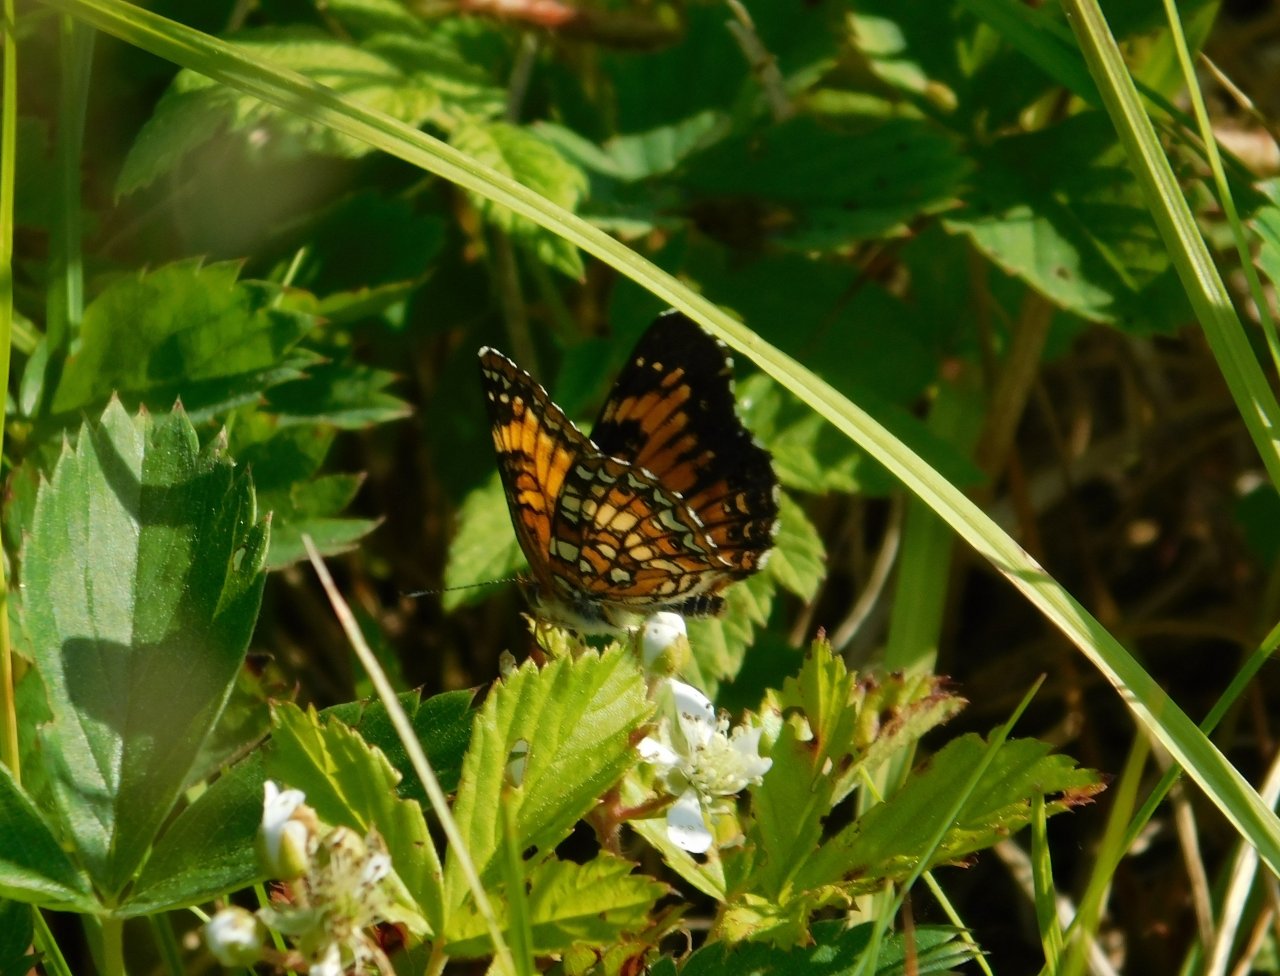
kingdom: Animalia
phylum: Arthropoda
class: Insecta
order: Lepidoptera
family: Nymphalidae
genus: Chlosyne
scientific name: Chlosyne harrisii
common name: Harris's Checkerspot
